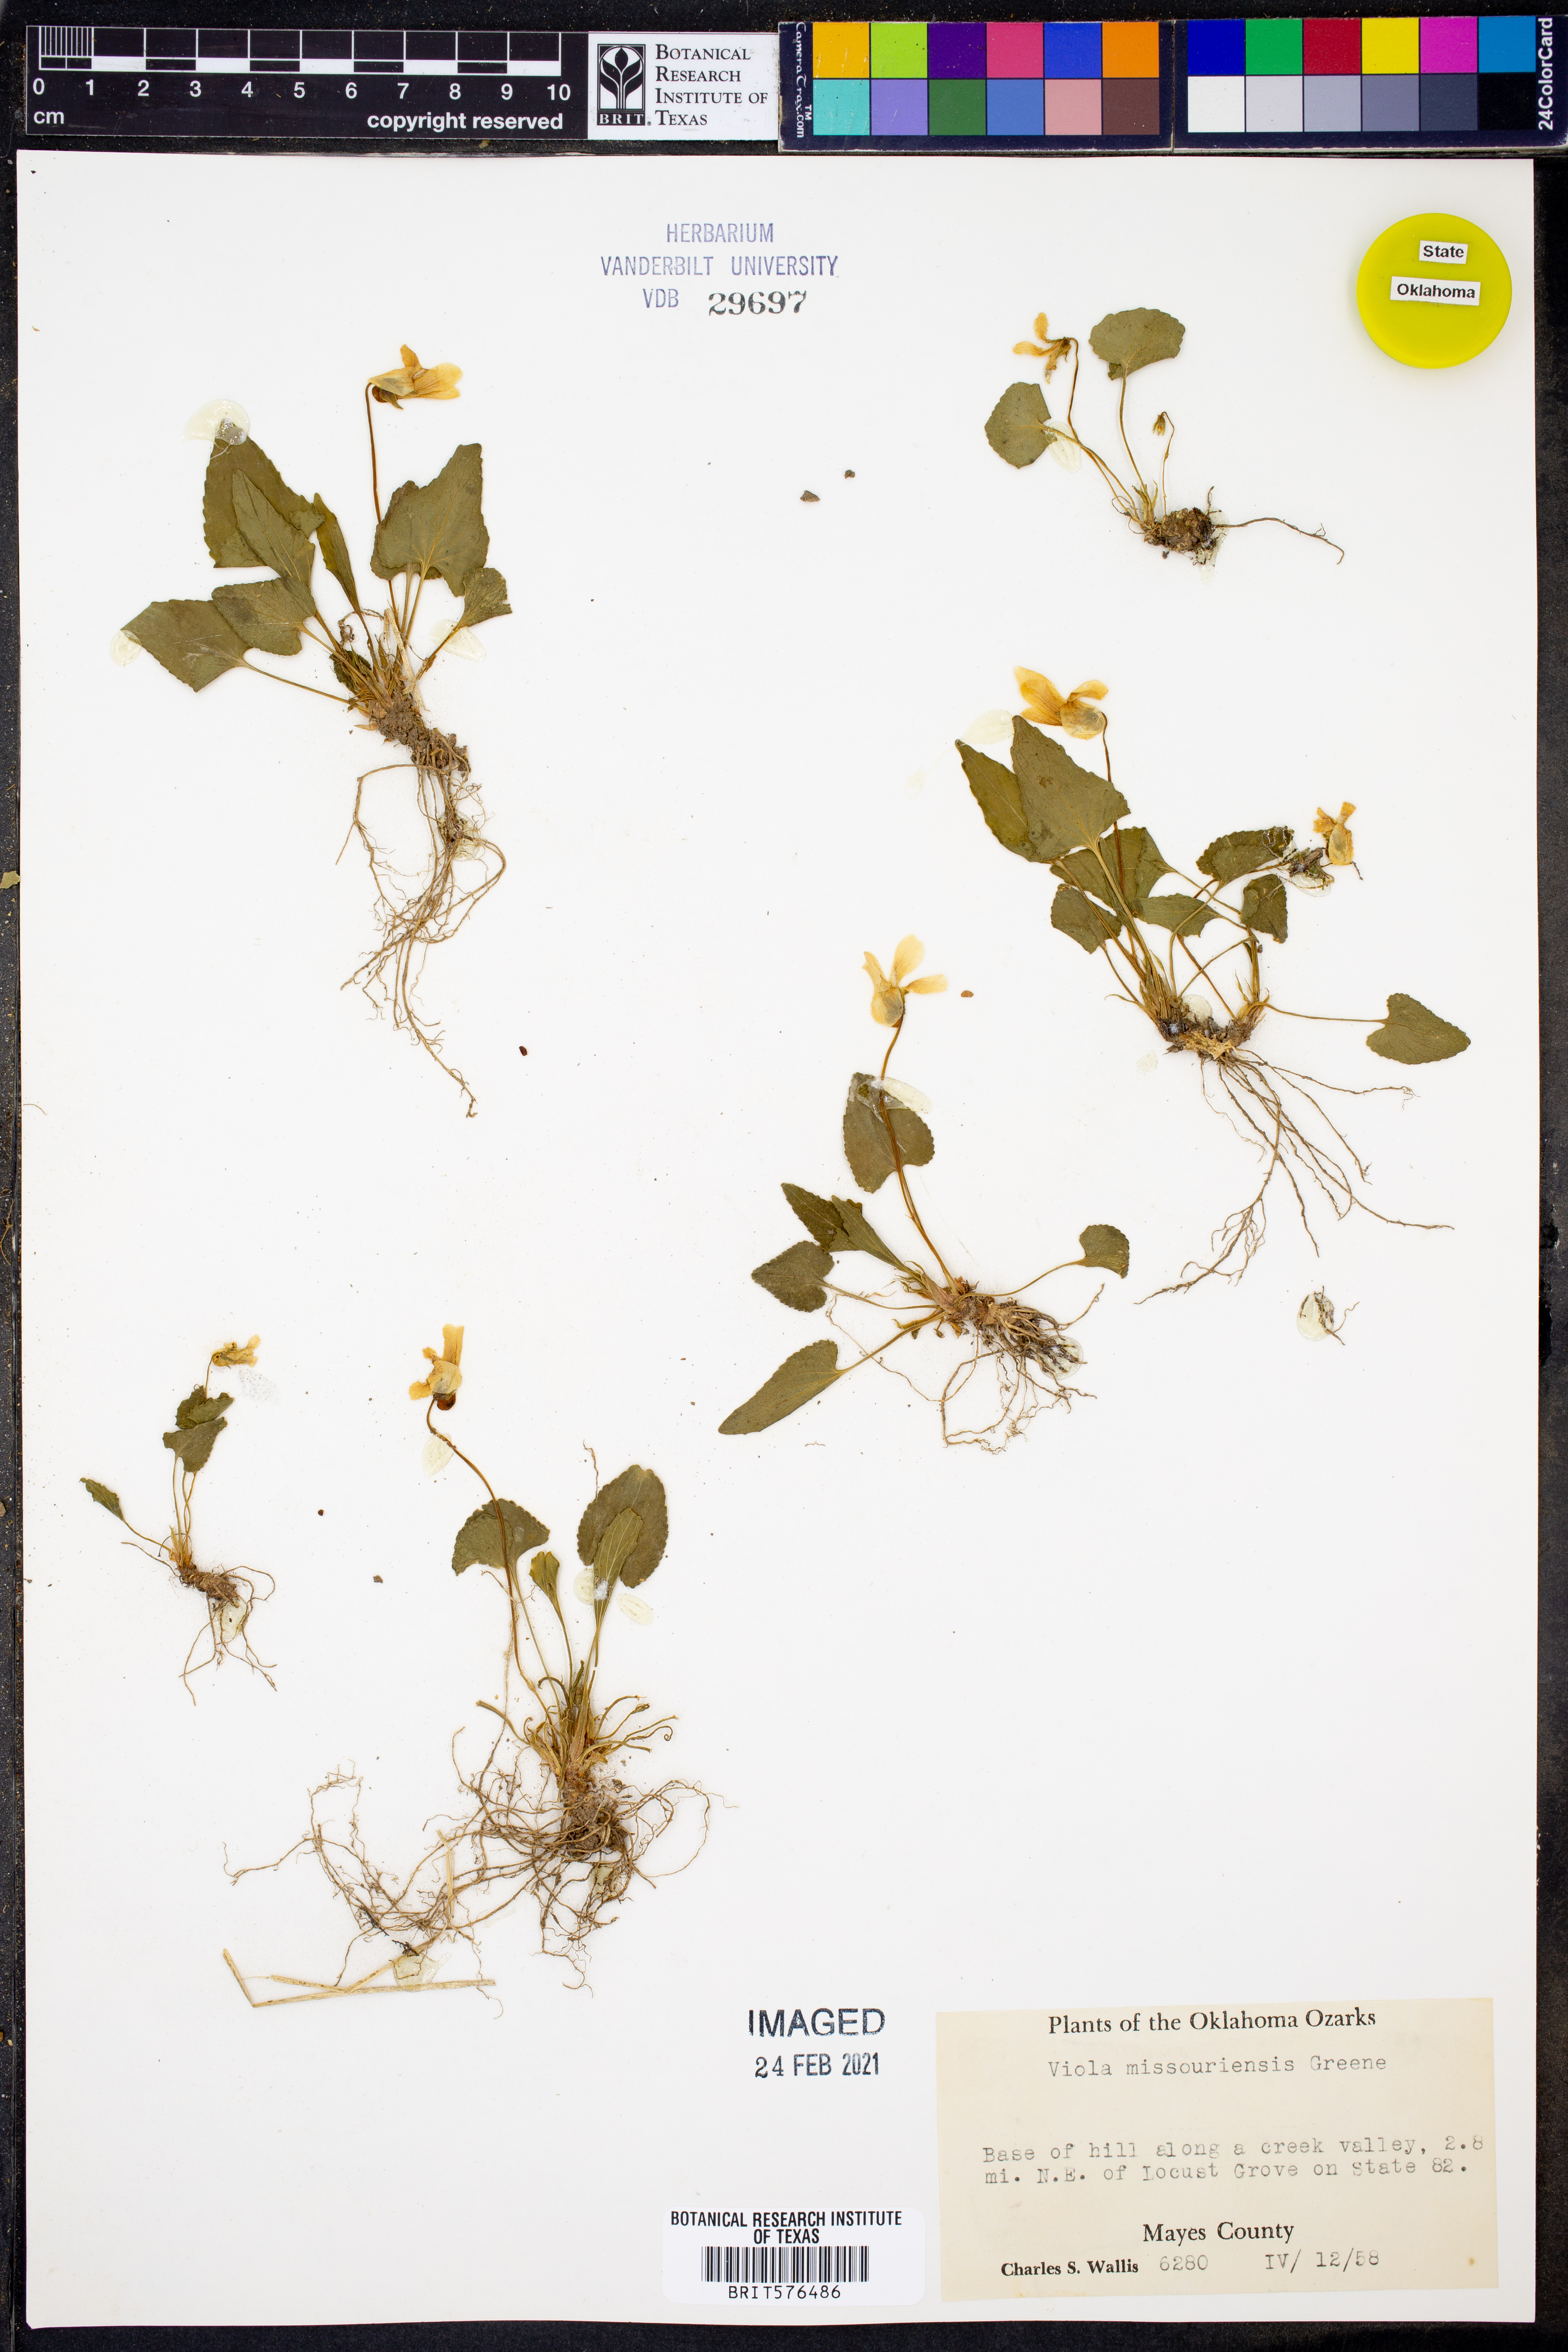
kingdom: Plantae
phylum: Tracheophyta
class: Magnoliopsida
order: Malpighiales
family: Violaceae
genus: Viola
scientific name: Viola missouriensis
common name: Missouri violet
